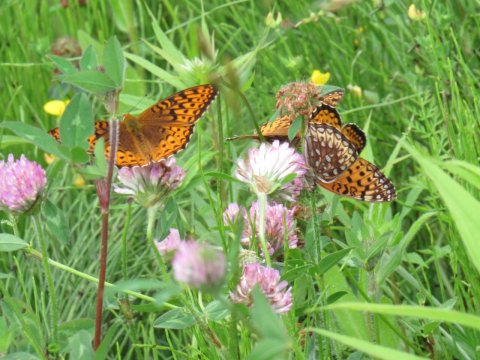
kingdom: Animalia
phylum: Arthropoda
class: Insecta
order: Lepidoptera
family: Nymphalidae
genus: Speyeria
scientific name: Speyeria atlantis
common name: Atlantis Fritillary
